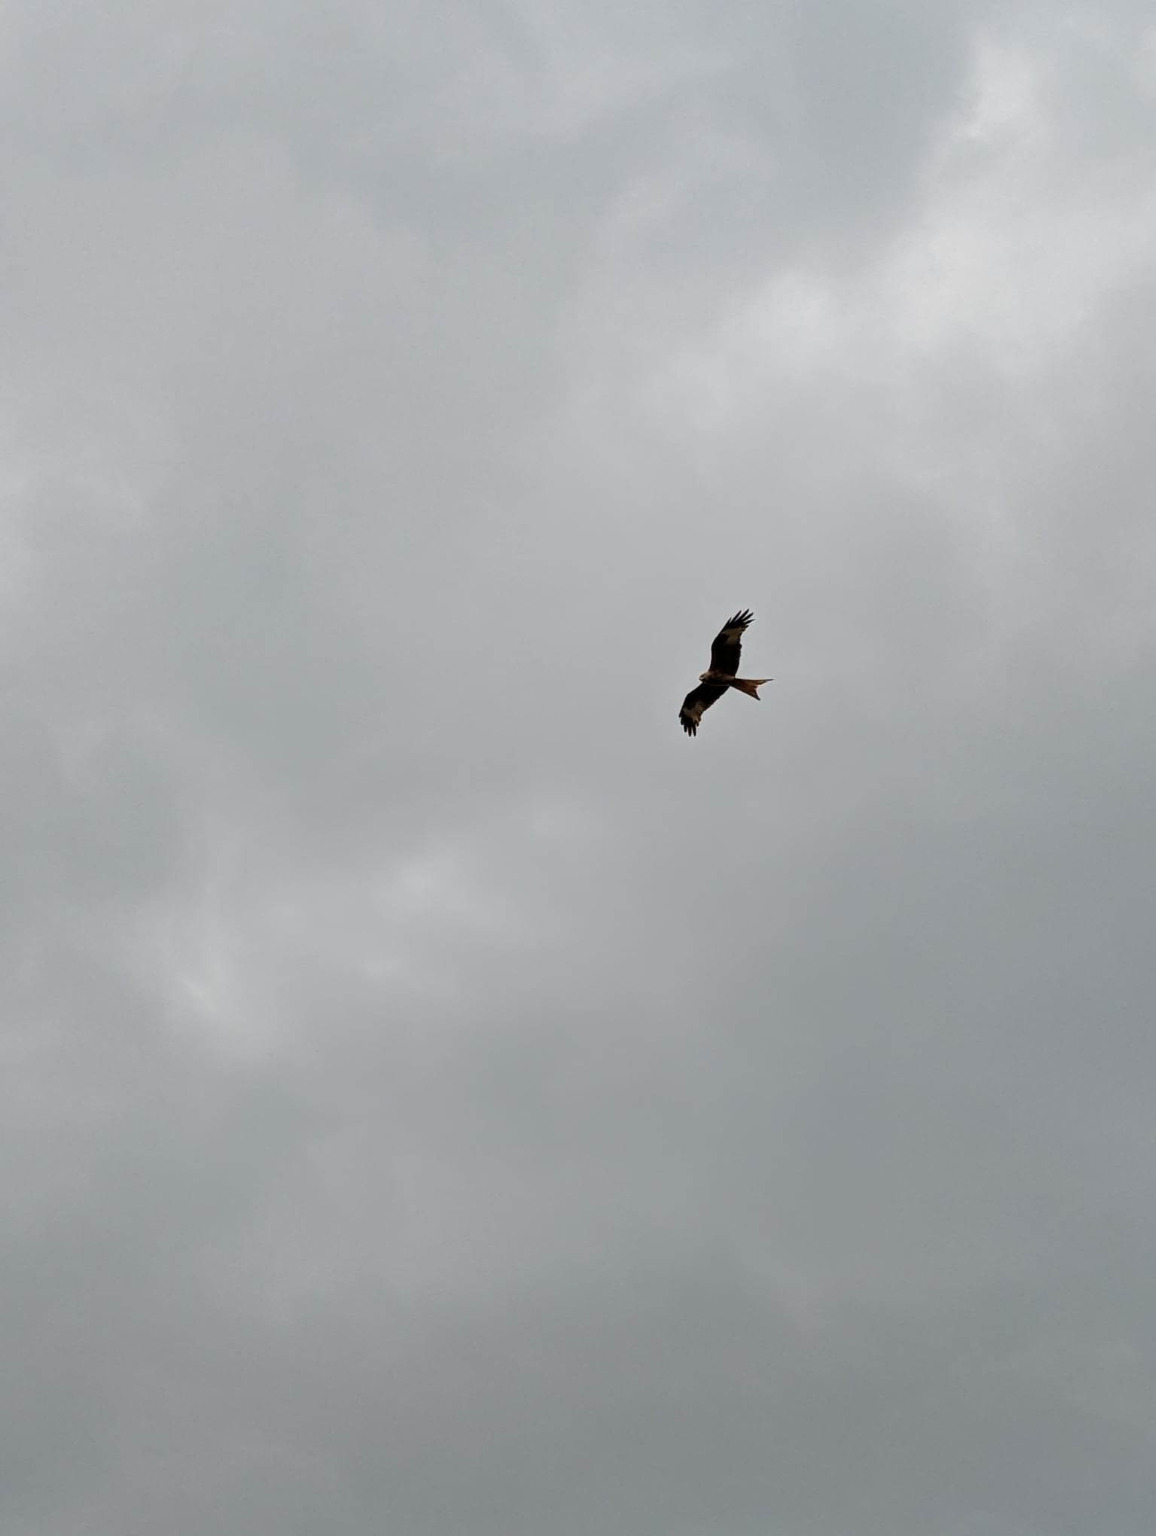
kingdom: Animalia
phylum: Chordata
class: Aves
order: Accipitriformes
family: Accipitridae
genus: Milvus
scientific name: Milvus milvus
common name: Rød glente
